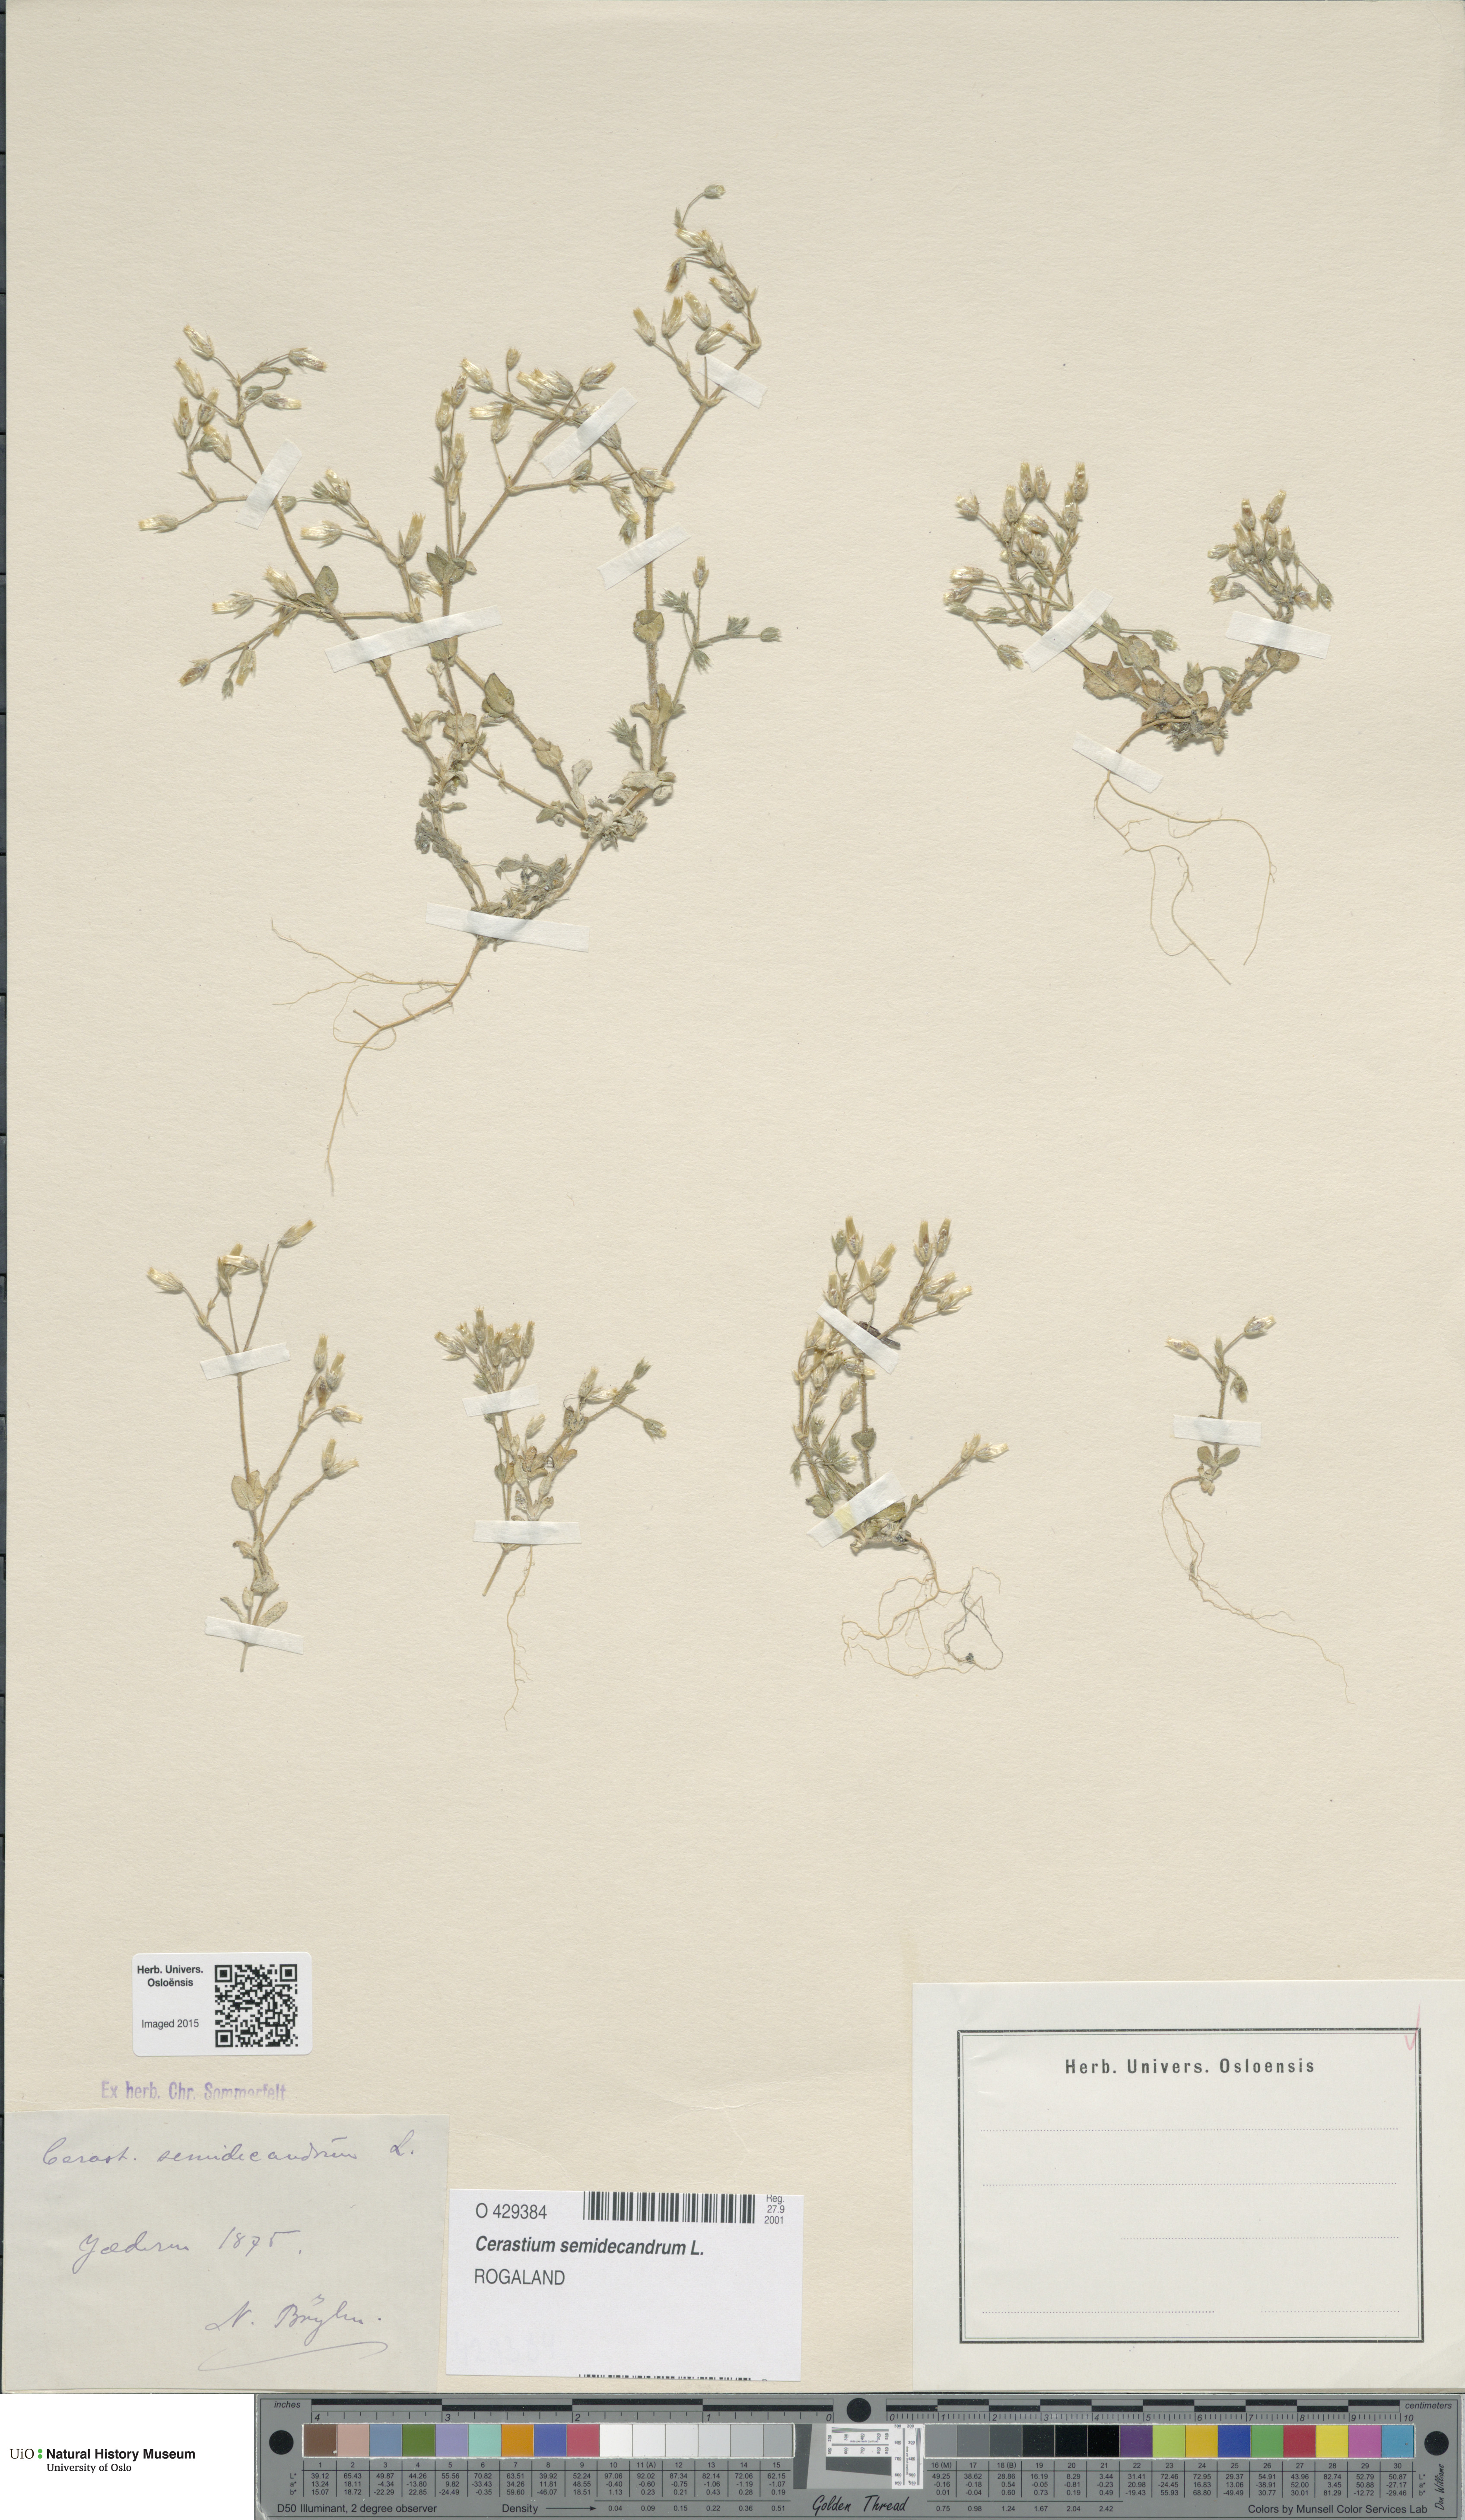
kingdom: Plantae
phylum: Tracheophyta
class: Magnoliopsida
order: Caryophyllales
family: Caryophyllaceae
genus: Cerastium
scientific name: Cerastium semidecandrum
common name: Little mouse-ear
